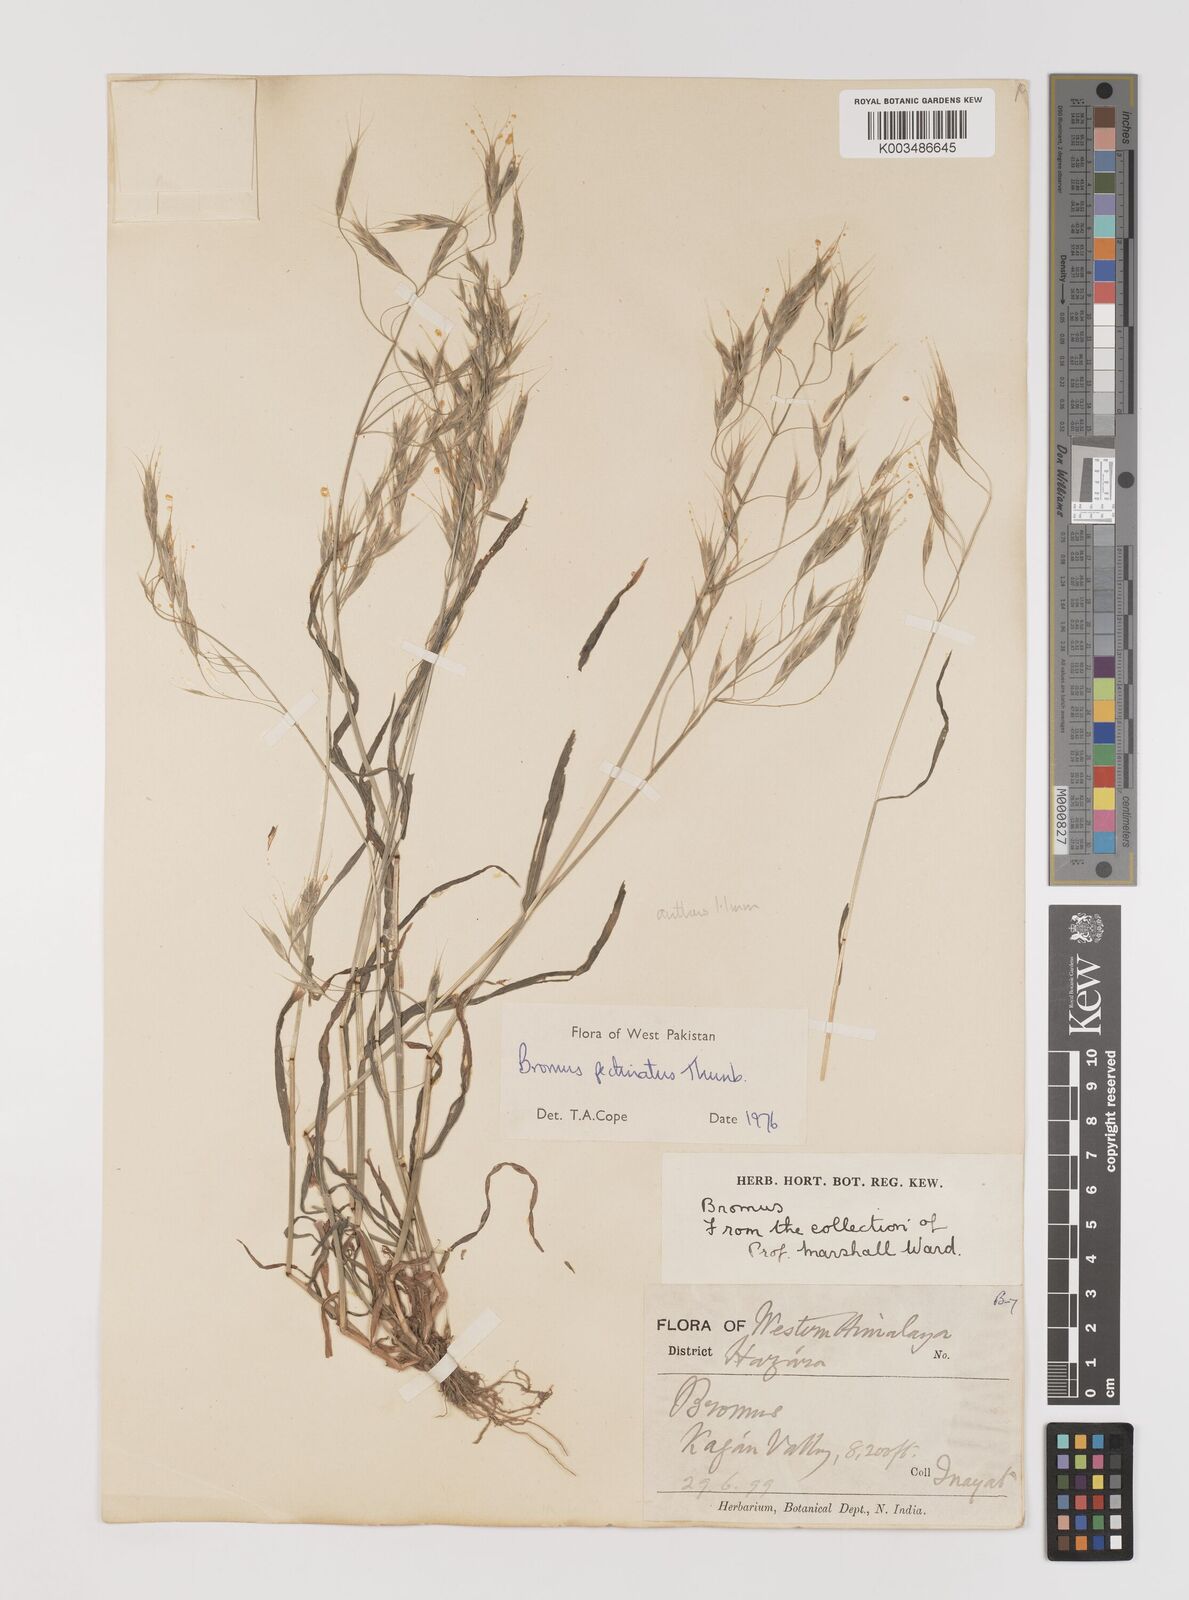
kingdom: Plantae
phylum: Tracheophyta
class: Liliopsida
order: Poales
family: Poaceae
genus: Bromus
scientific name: Bromus pectinatus
